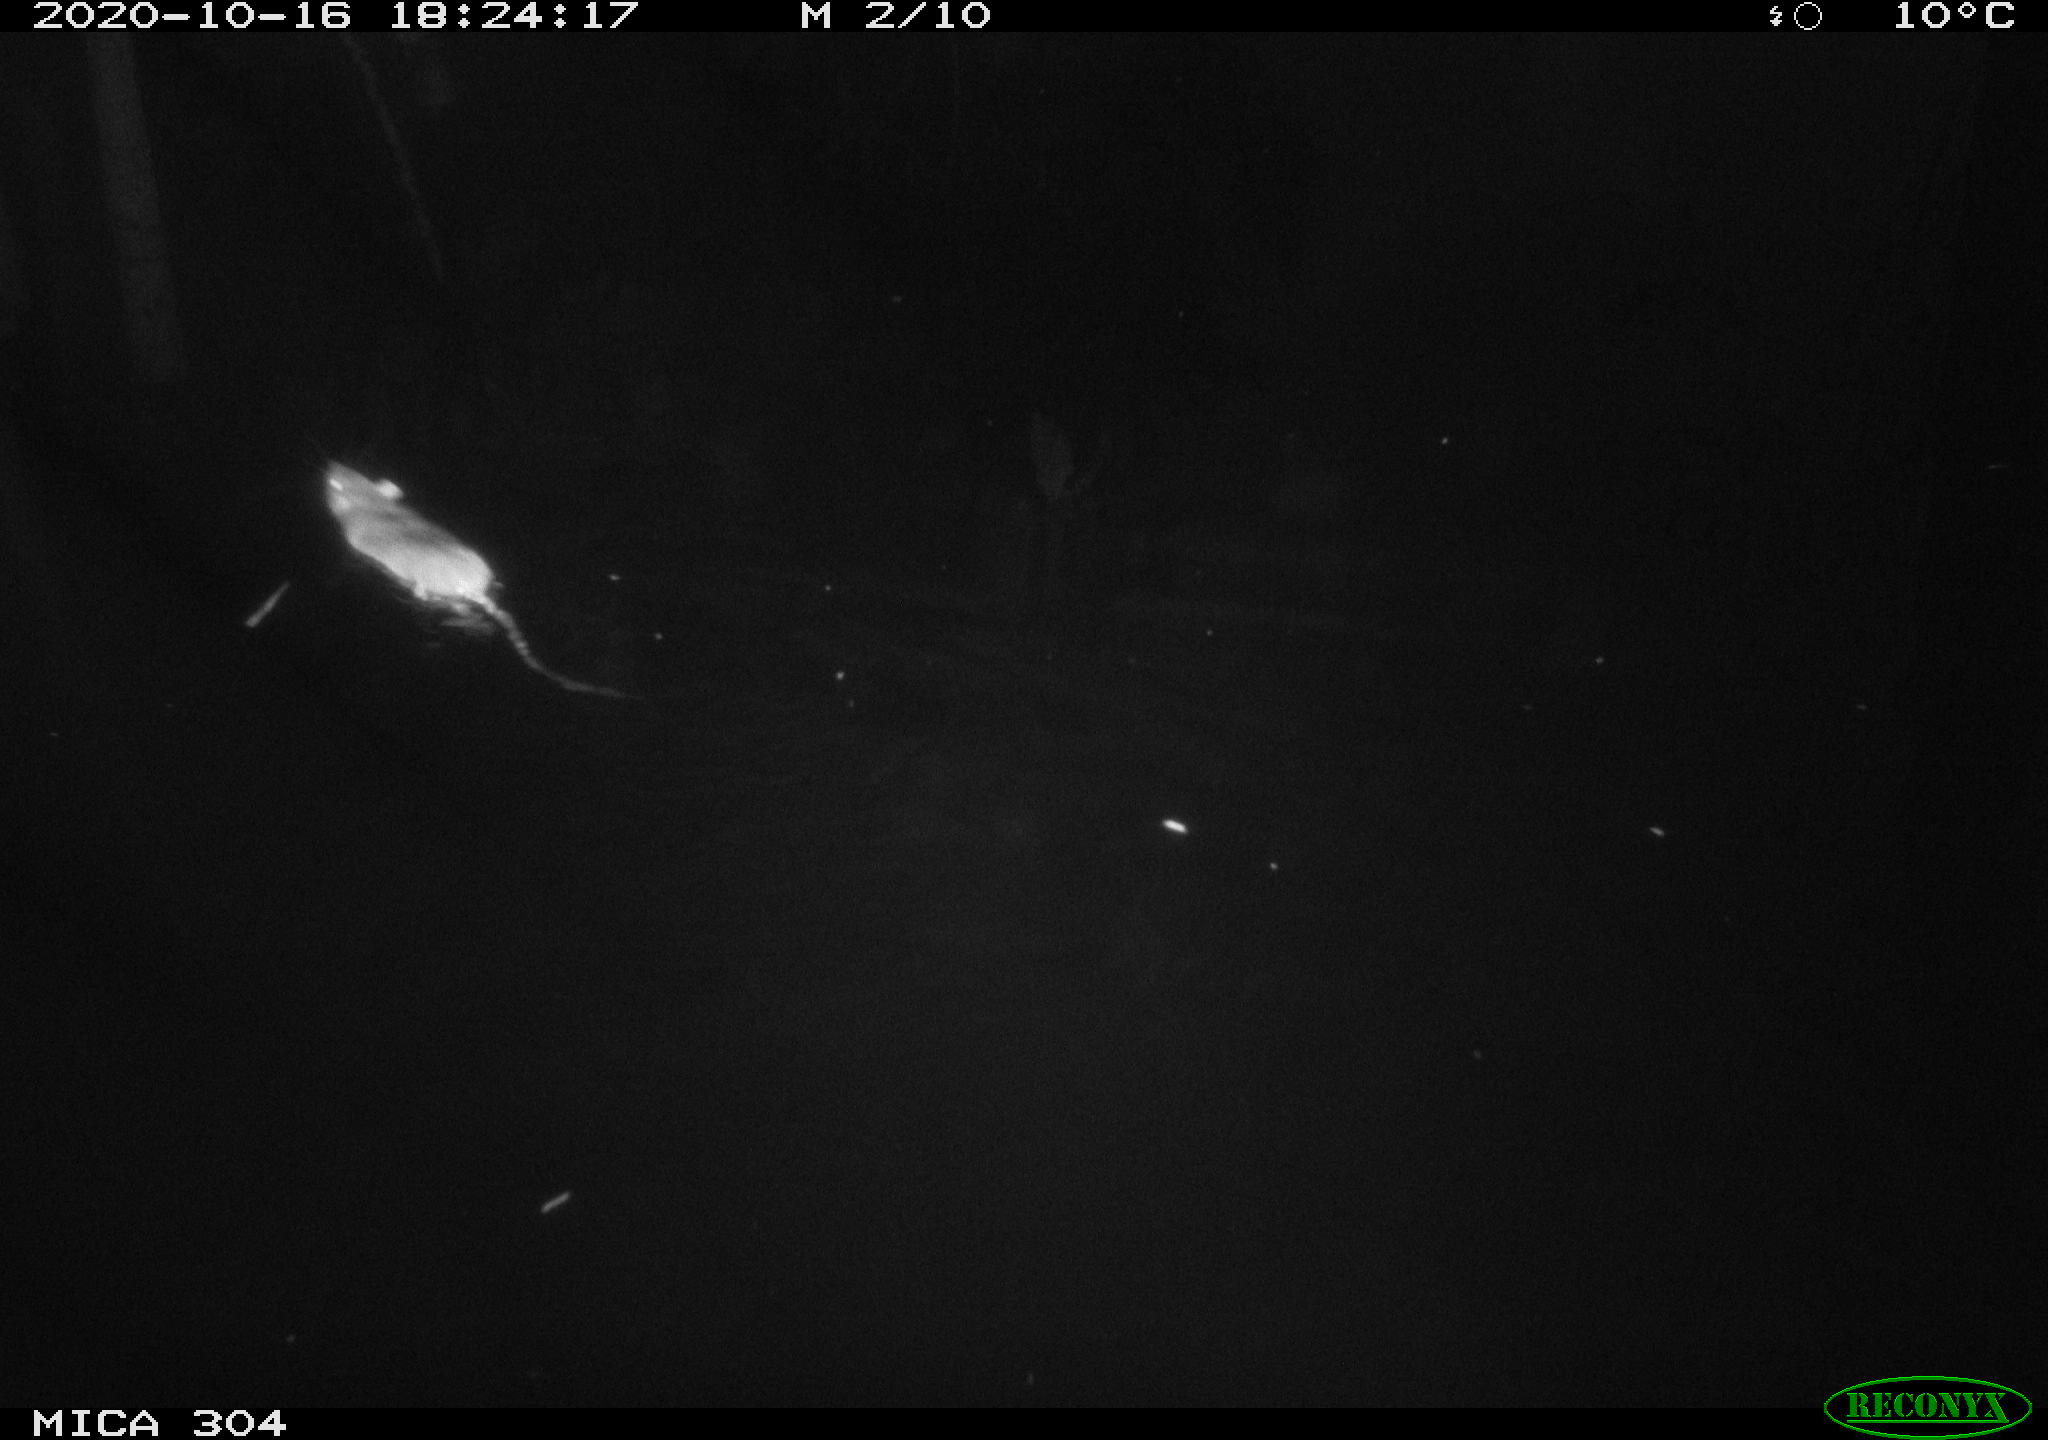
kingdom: Animalia
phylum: Chordata
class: Mammalia
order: Rodentia
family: Muridae
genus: Rattus
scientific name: Rattus norvegicus
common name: Brown rat
